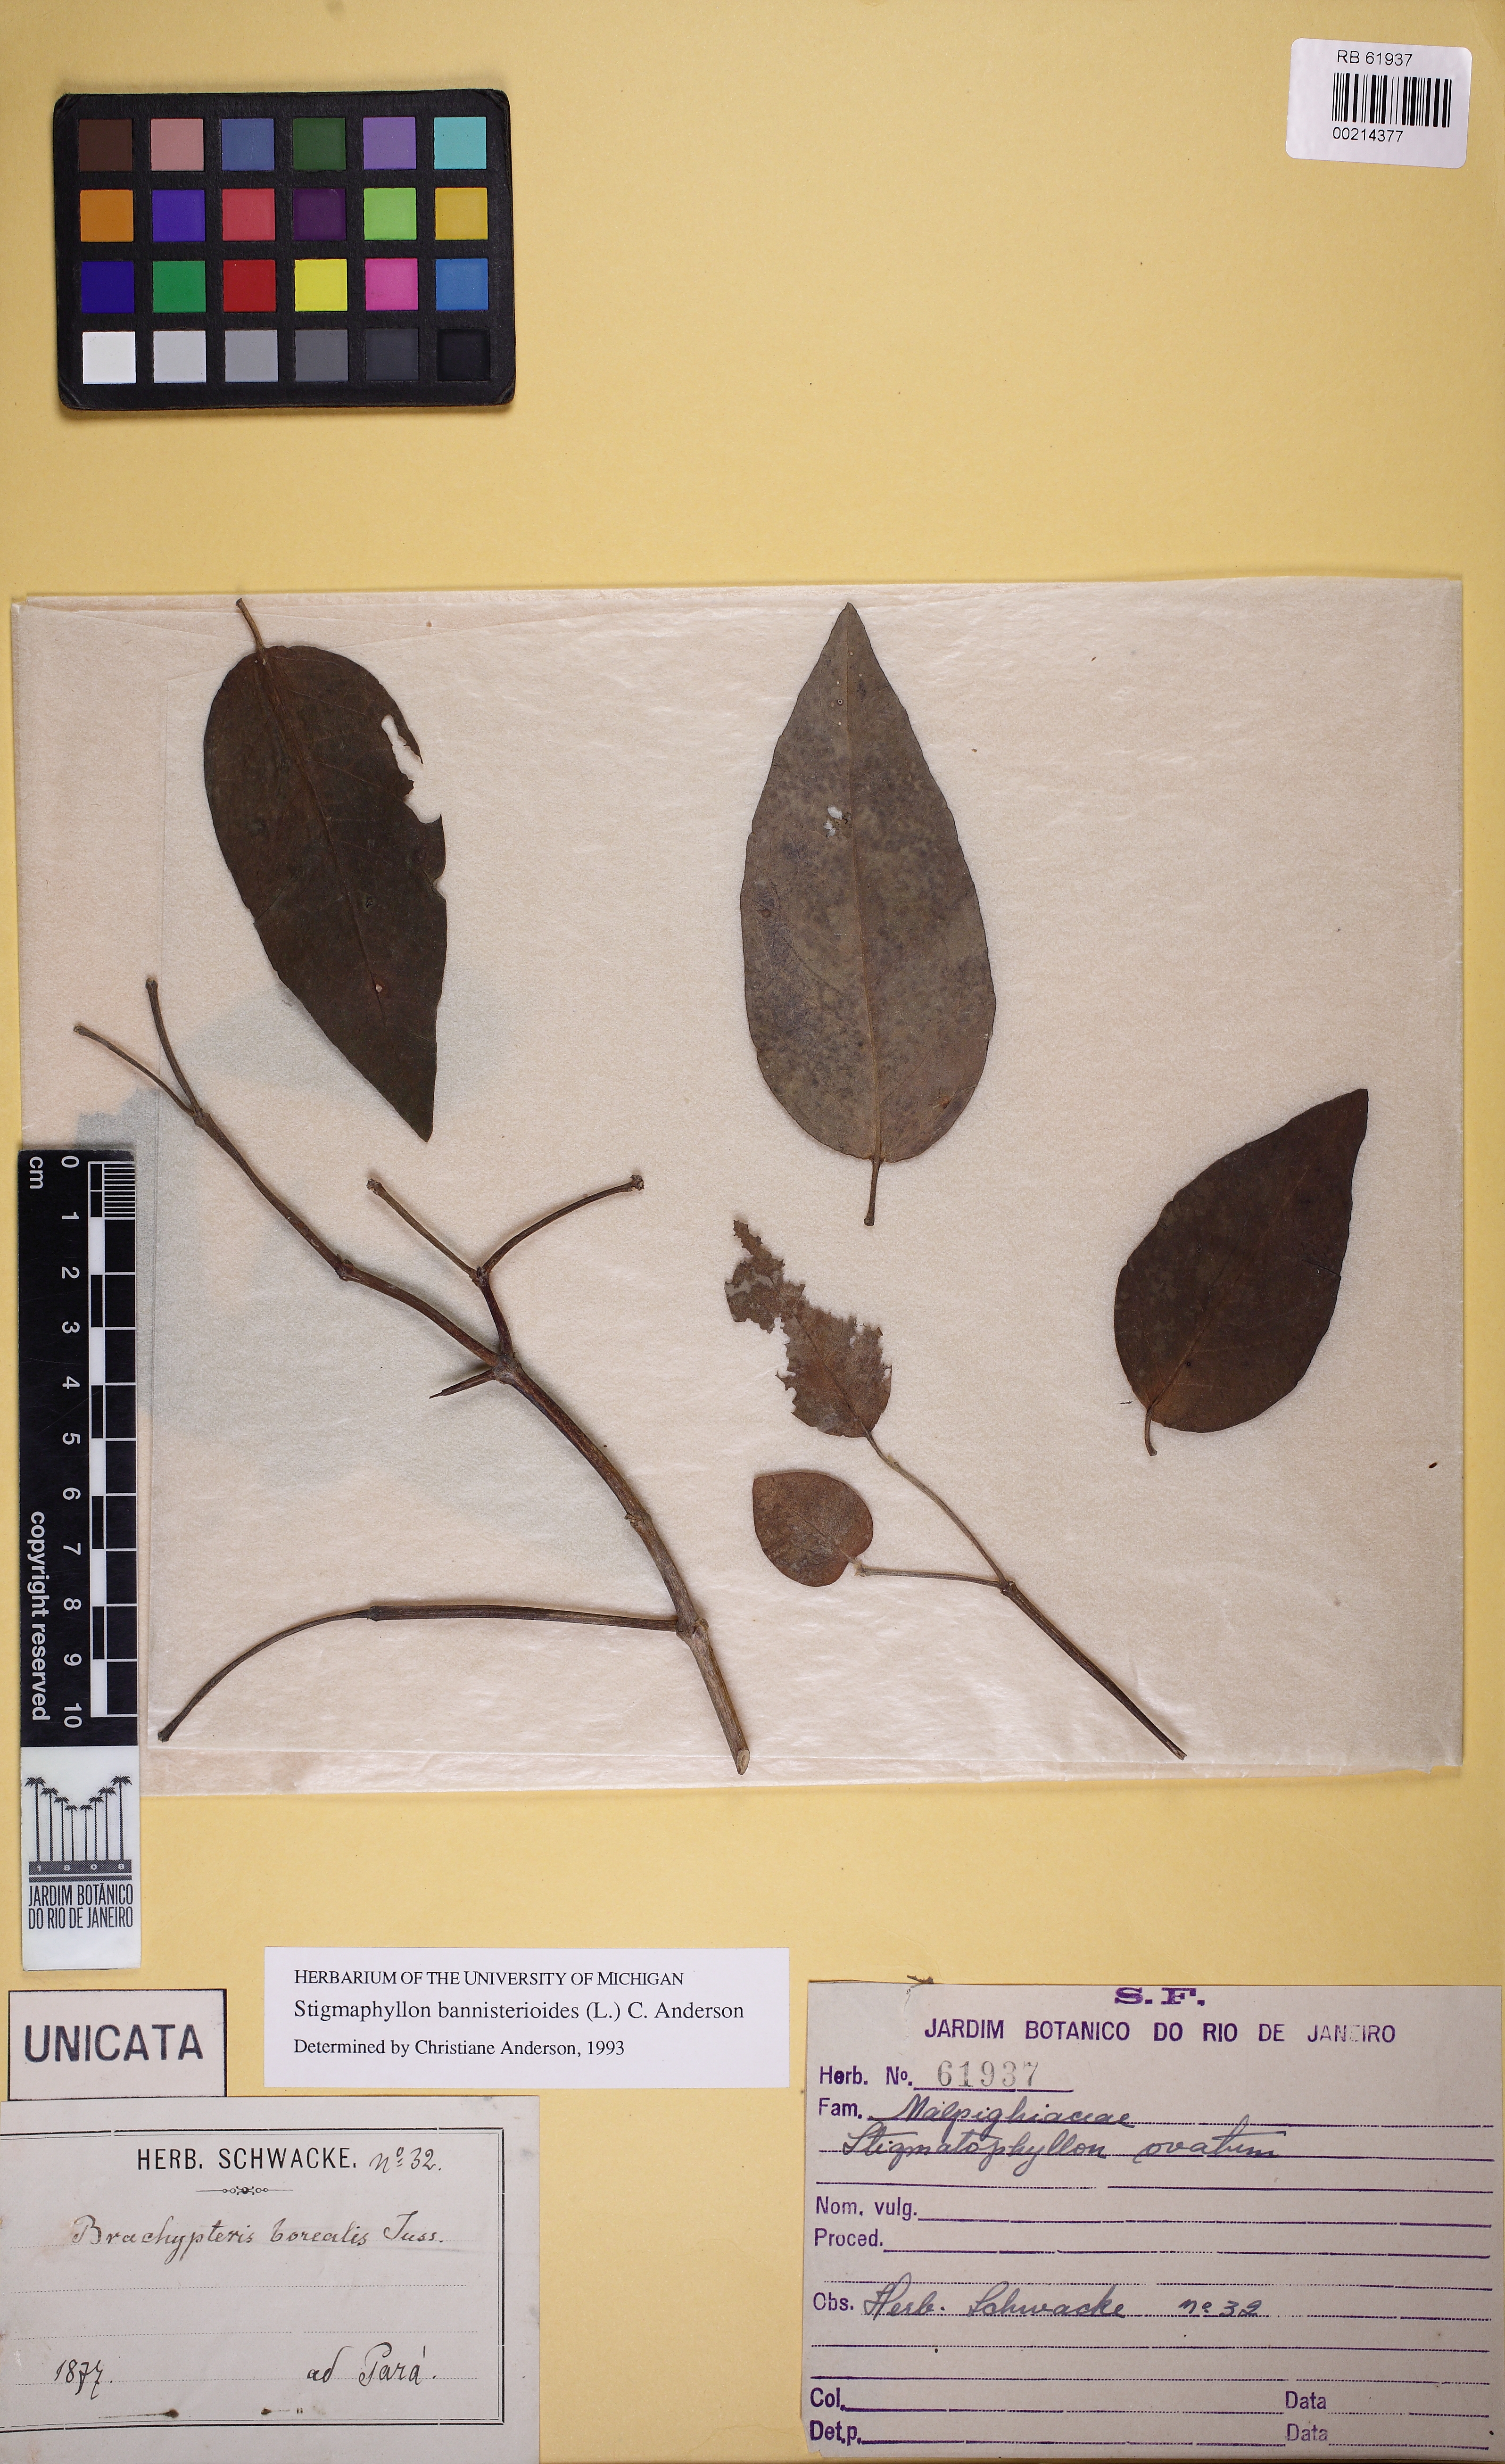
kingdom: Plantae
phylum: Tracheophyta
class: Magnoliopsida
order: Malpighiales
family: Malpighiaceae
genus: Stigmaphyllon
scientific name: Stigmaphyllon bannisterioides
